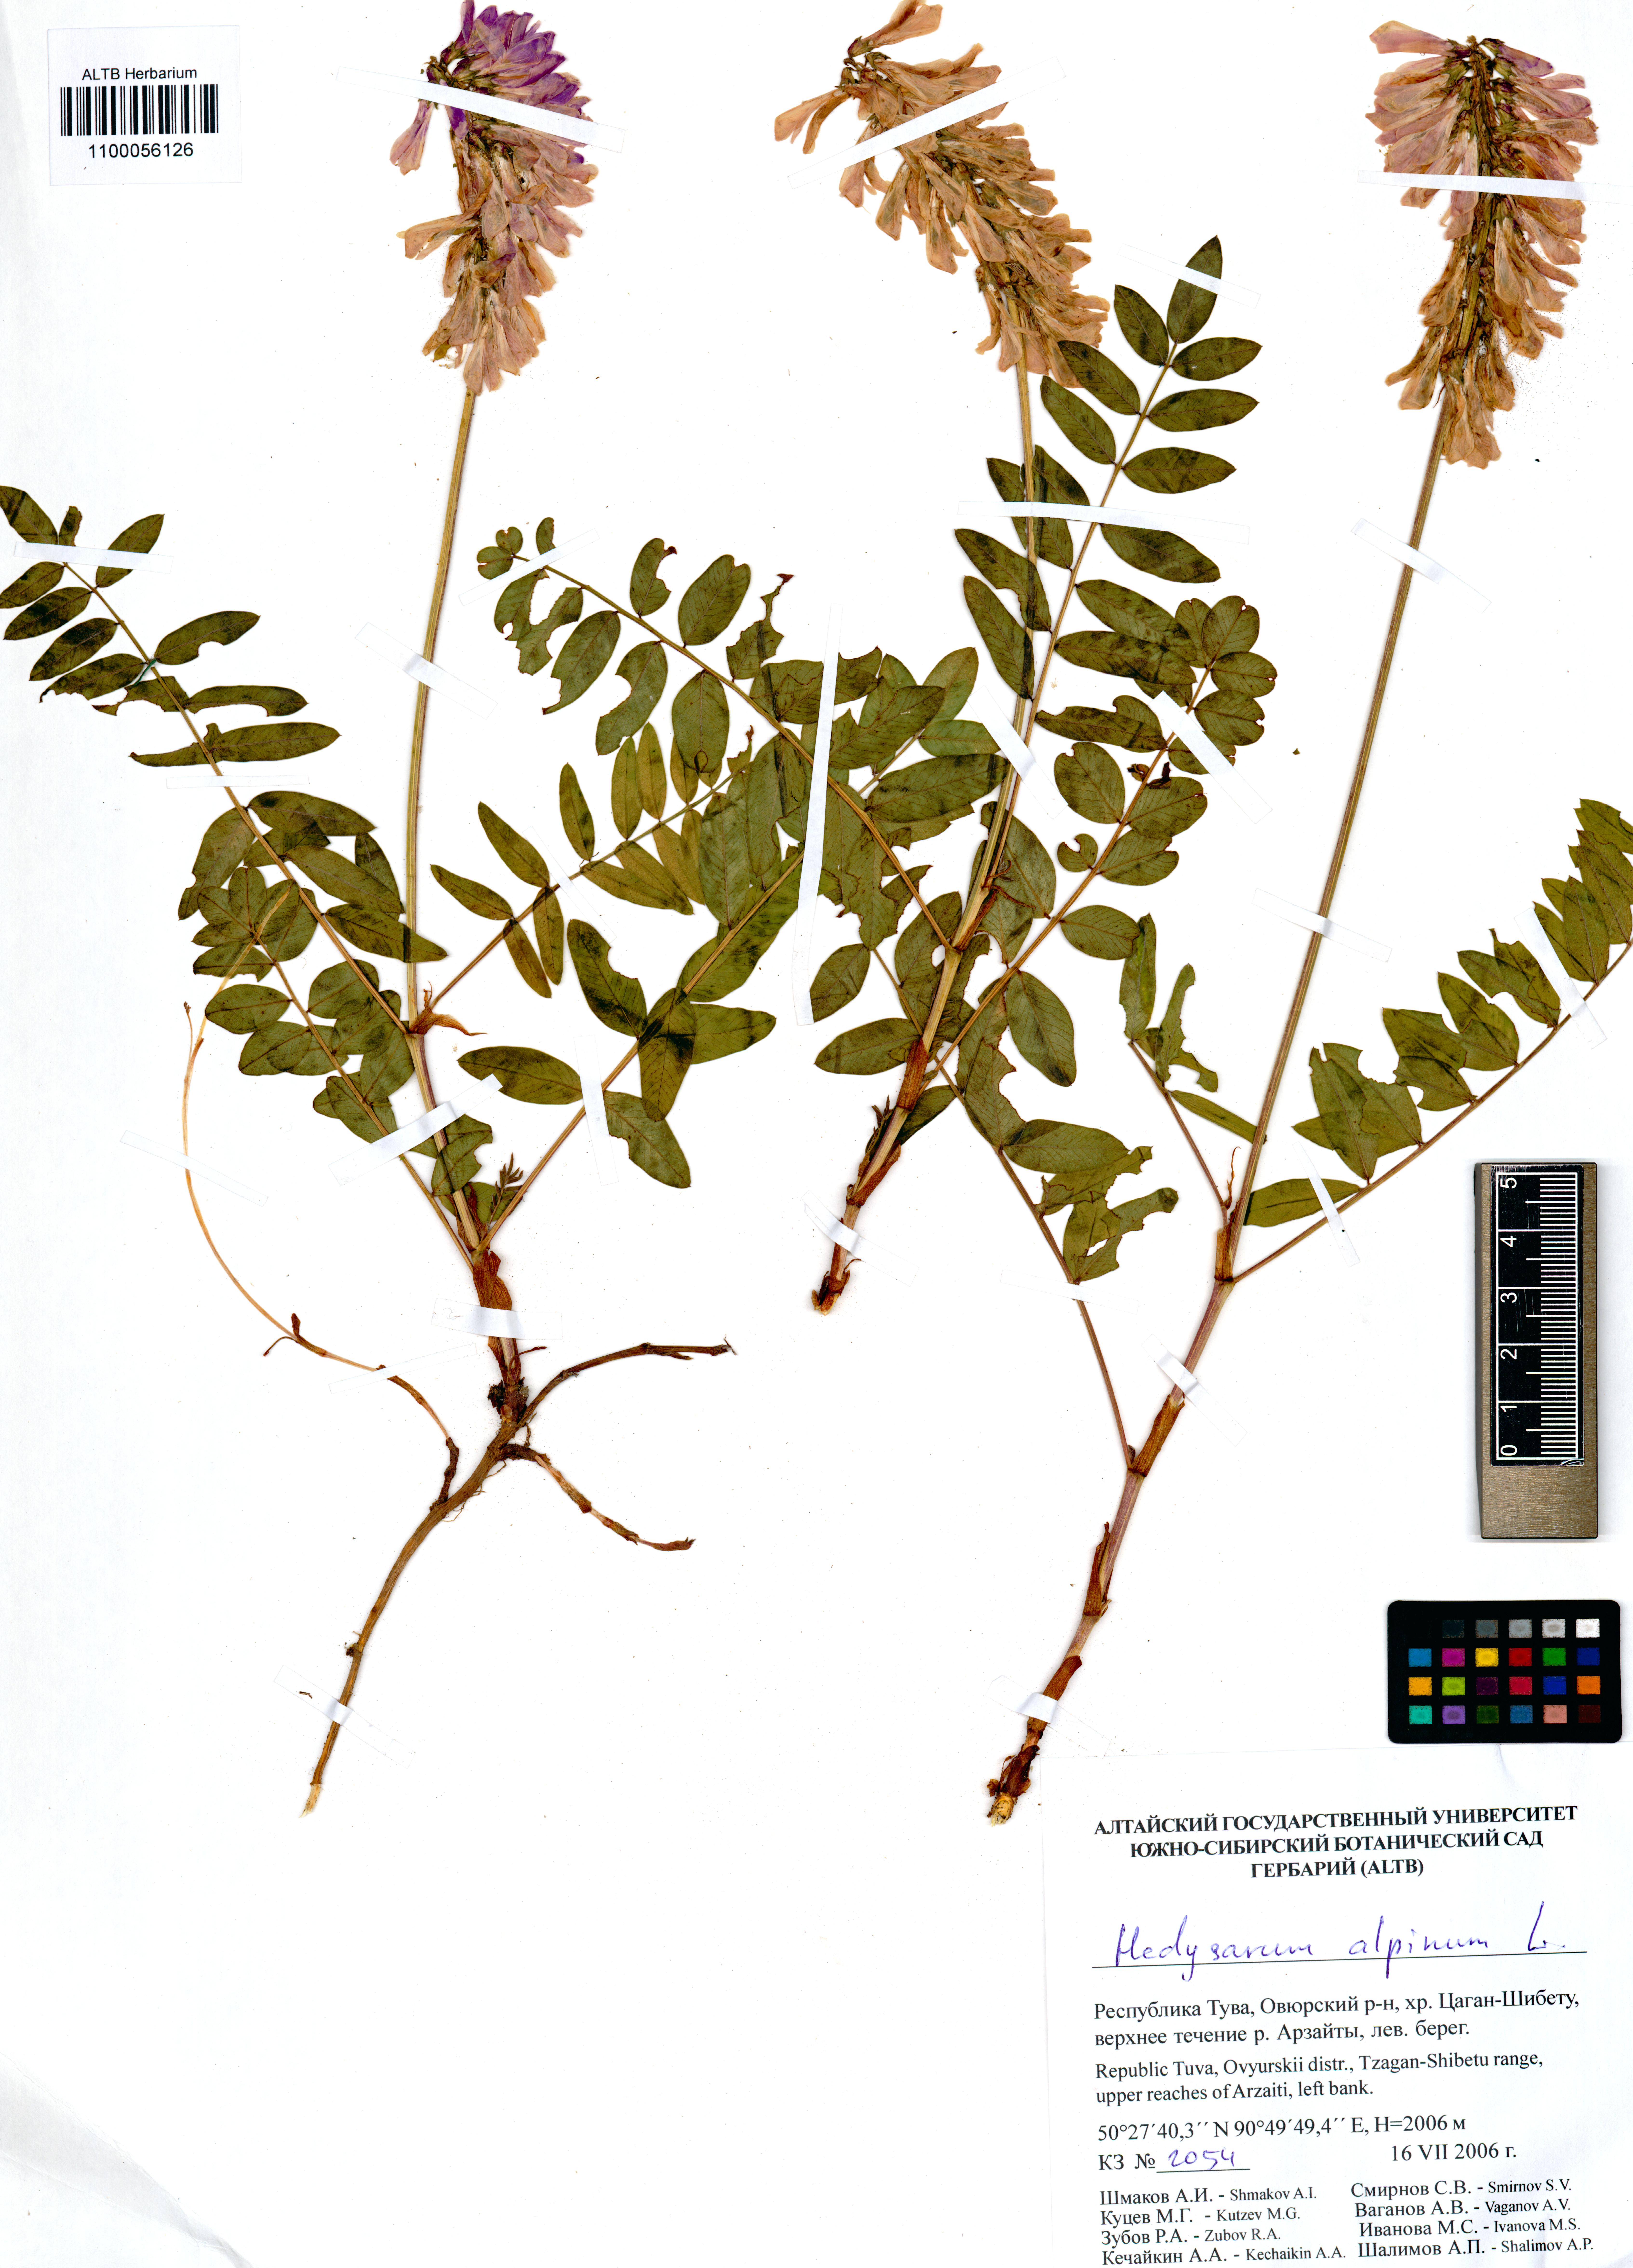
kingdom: Plantae
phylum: Tracheophyta
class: Magnoliopsida
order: Fabales
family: Fabaceae
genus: Hedysarum
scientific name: Hedysarum alpinum
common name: Alpine sweet-vetch
